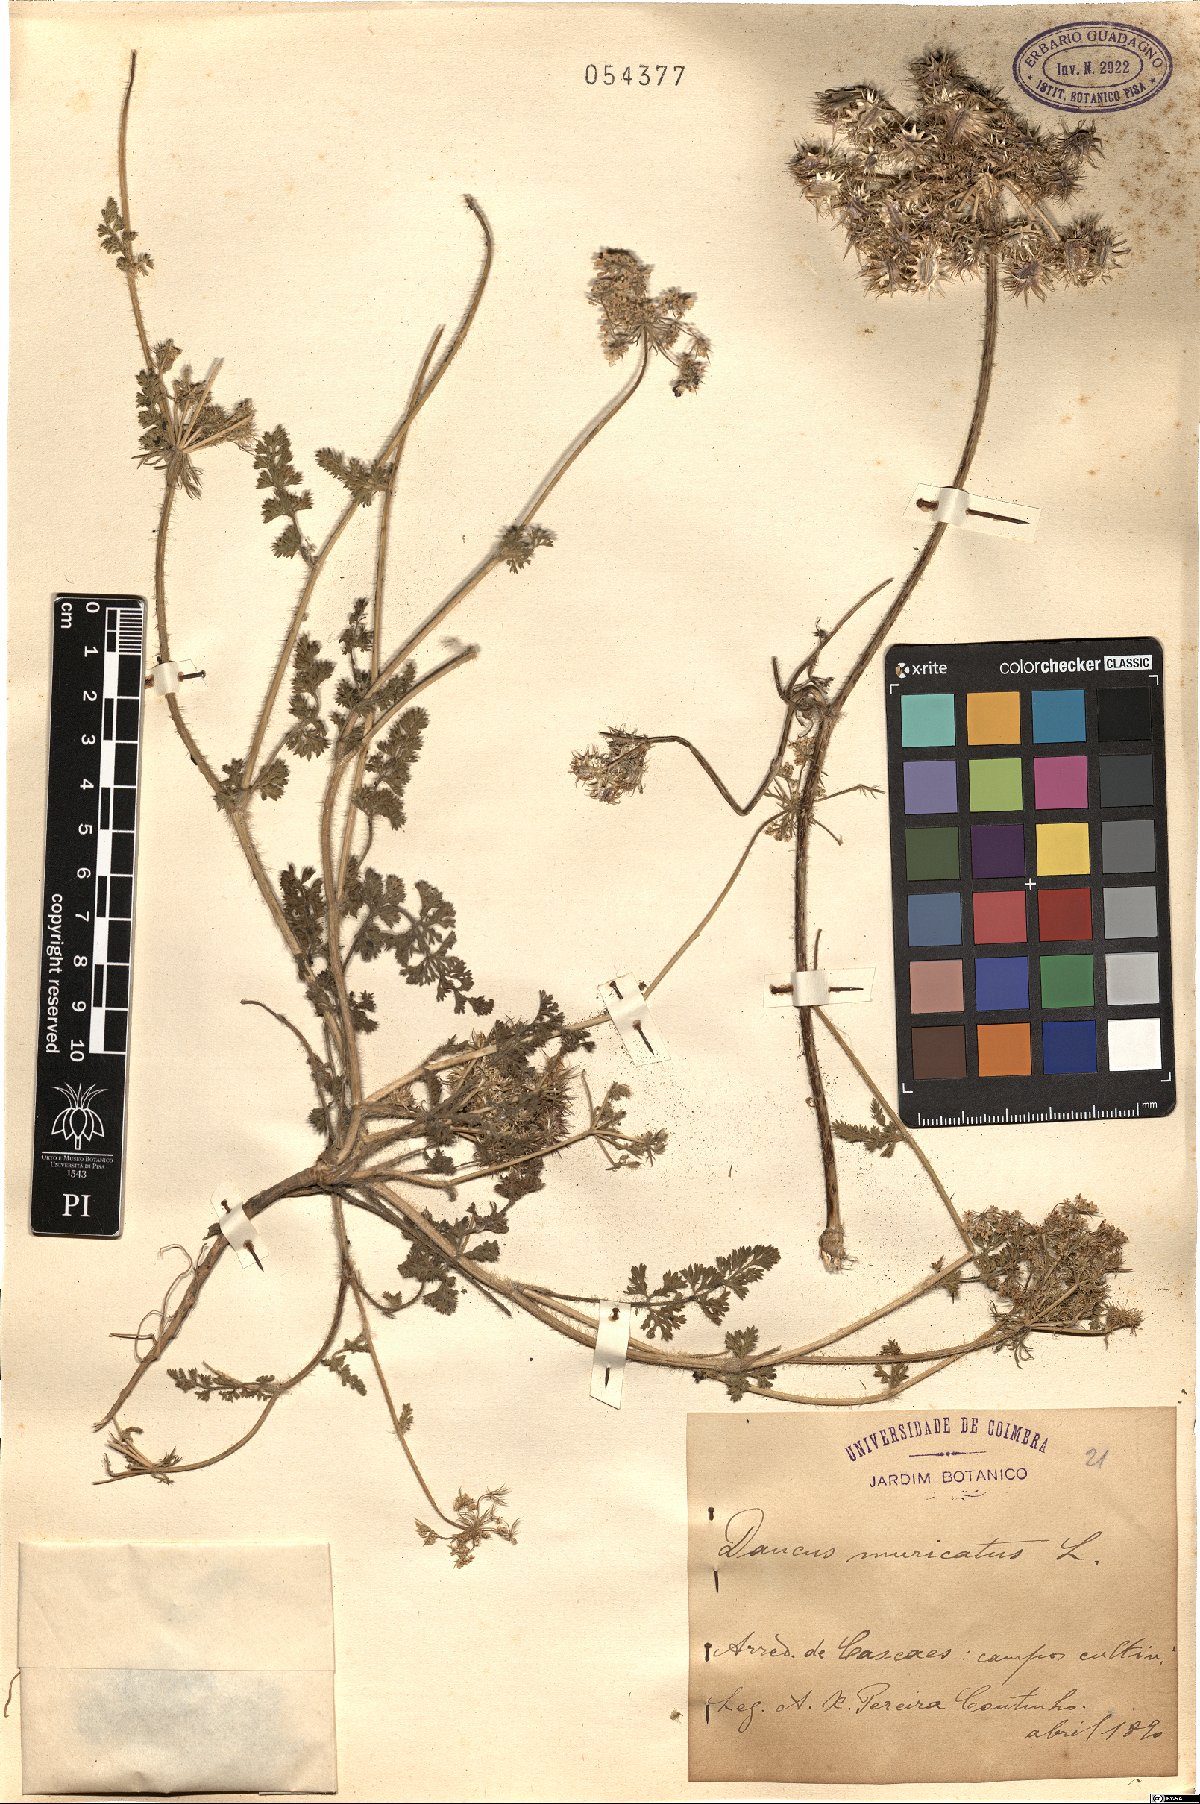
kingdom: Plantae
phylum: Tracheophyta
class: Magnoliopsida
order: Apiales
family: Apiaceae
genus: Daucus
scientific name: Daucus muricatus
